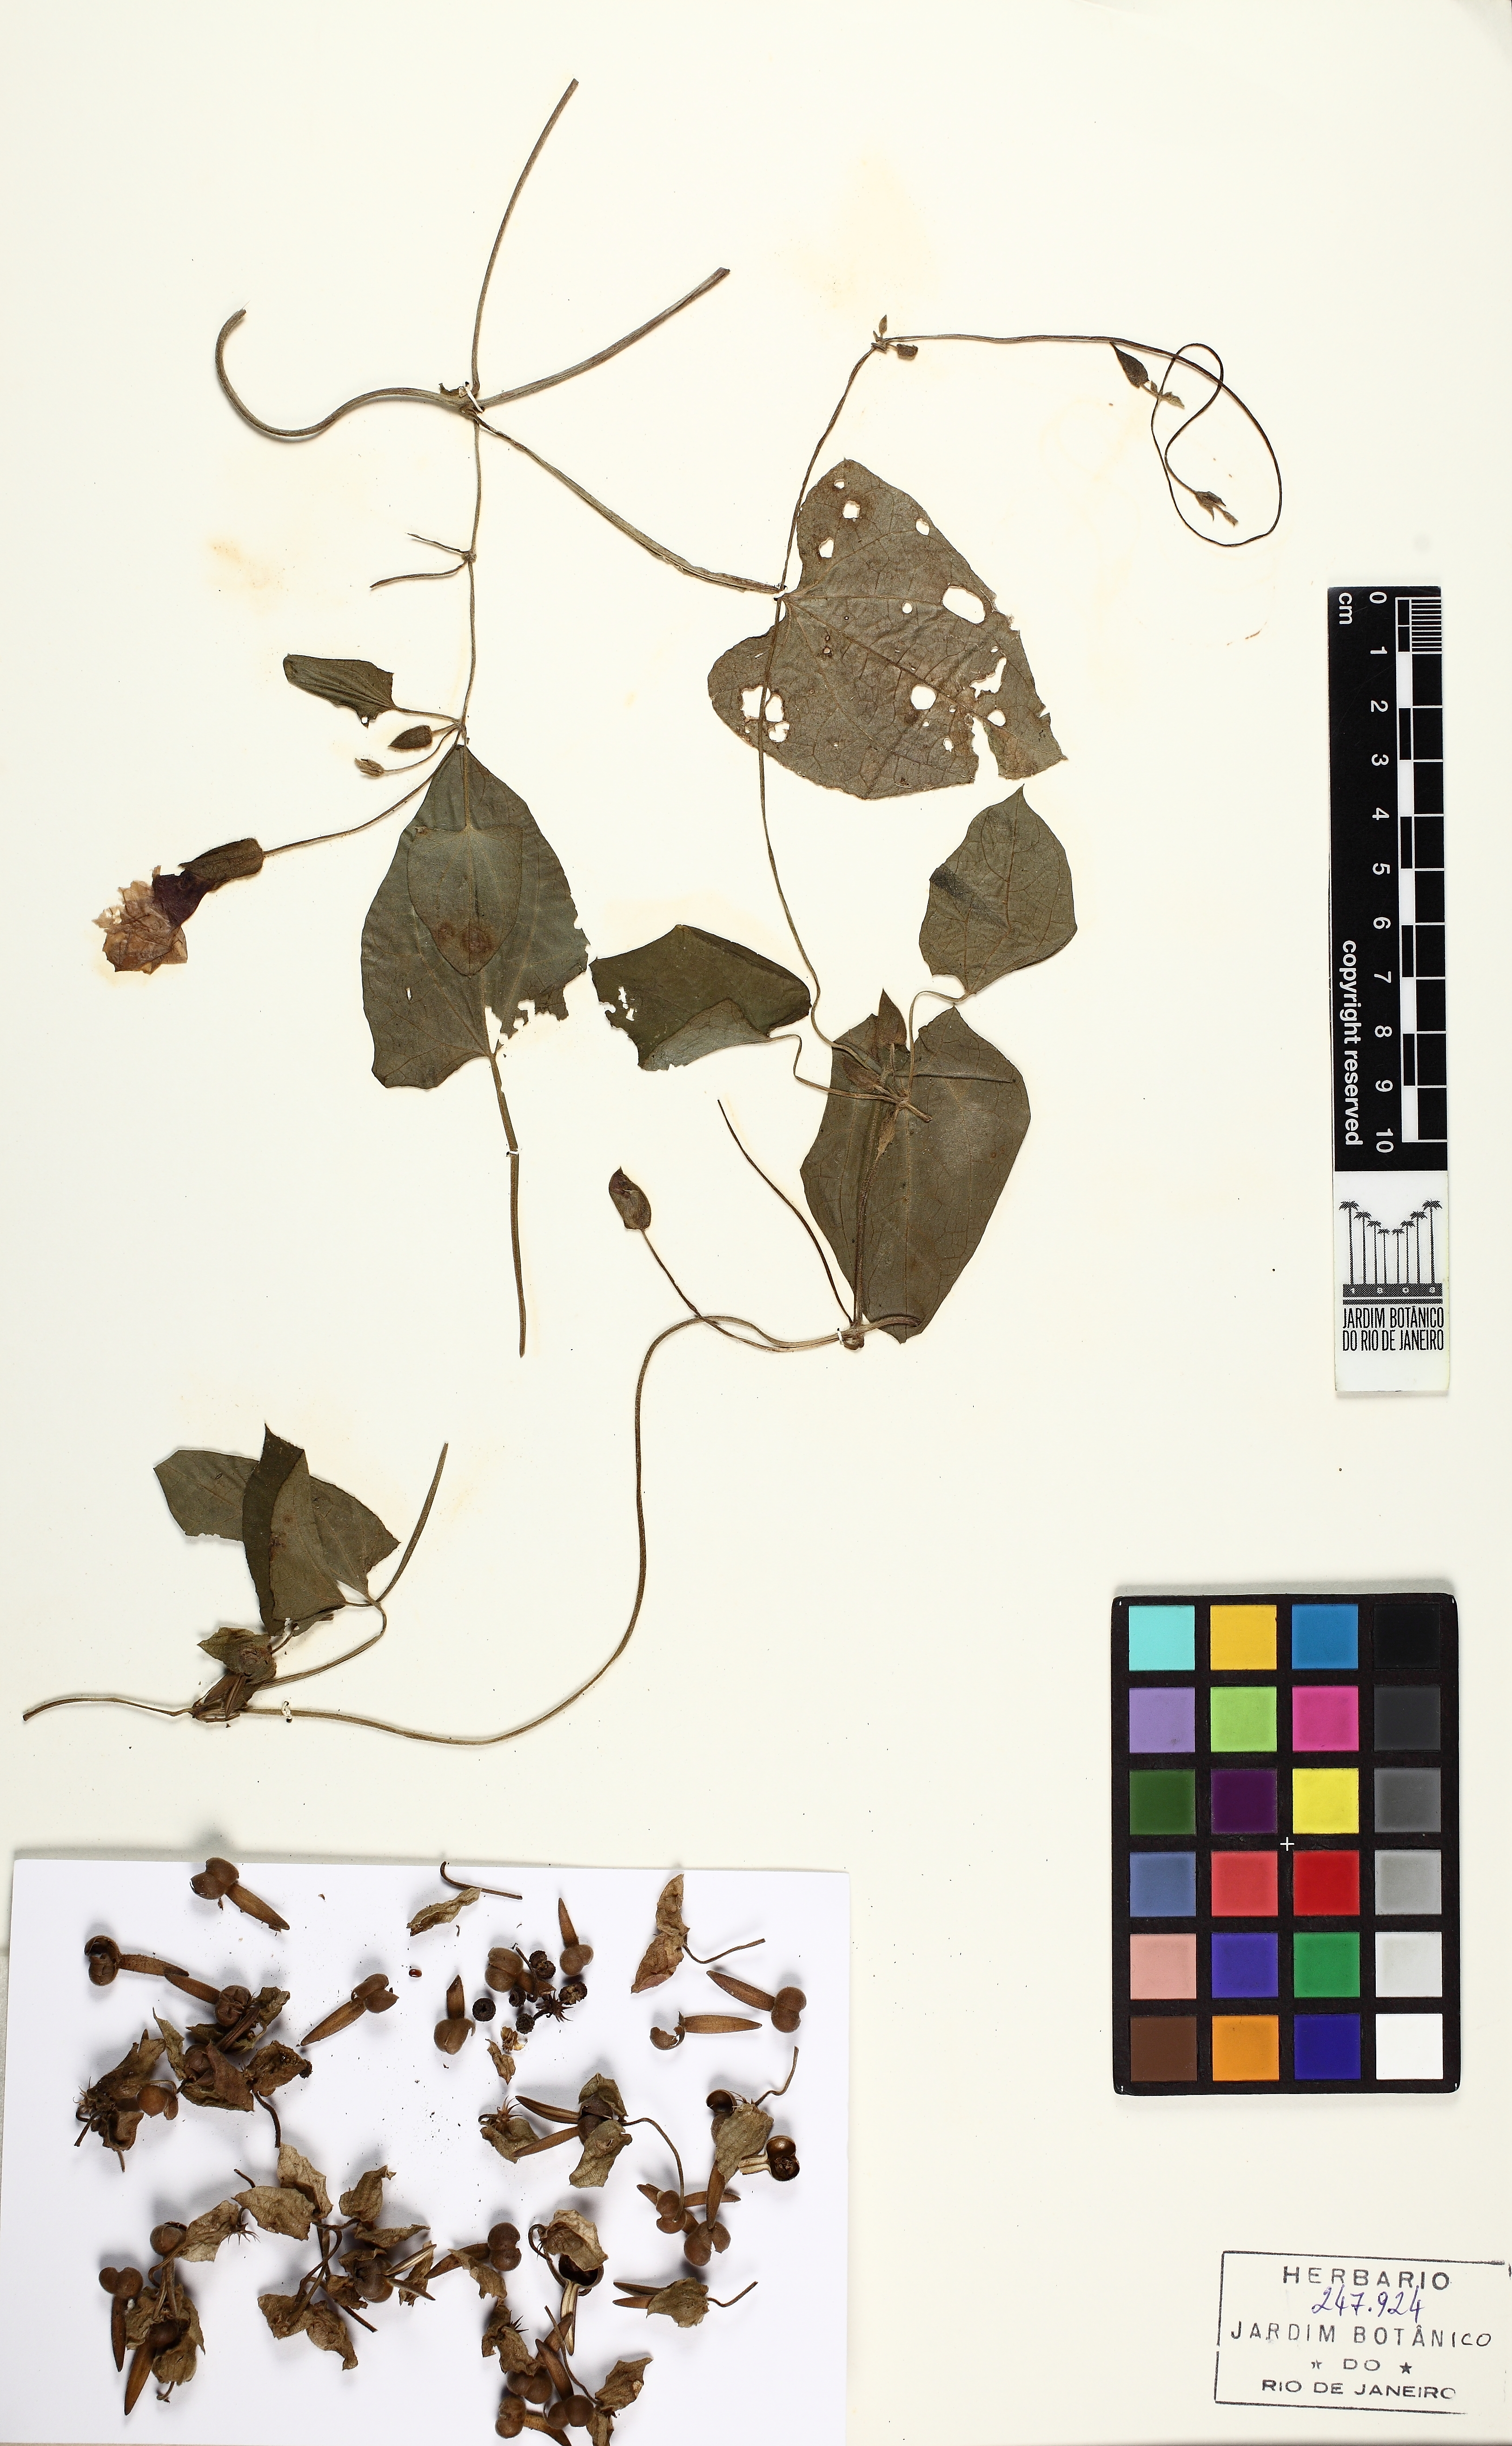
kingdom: Plantae
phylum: Tracheophyta
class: Magnoliopsida
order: Lamiales
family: Acanthaceae
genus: Thunbergia
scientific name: Thunbergia alata
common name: Blackeyed susan vine
